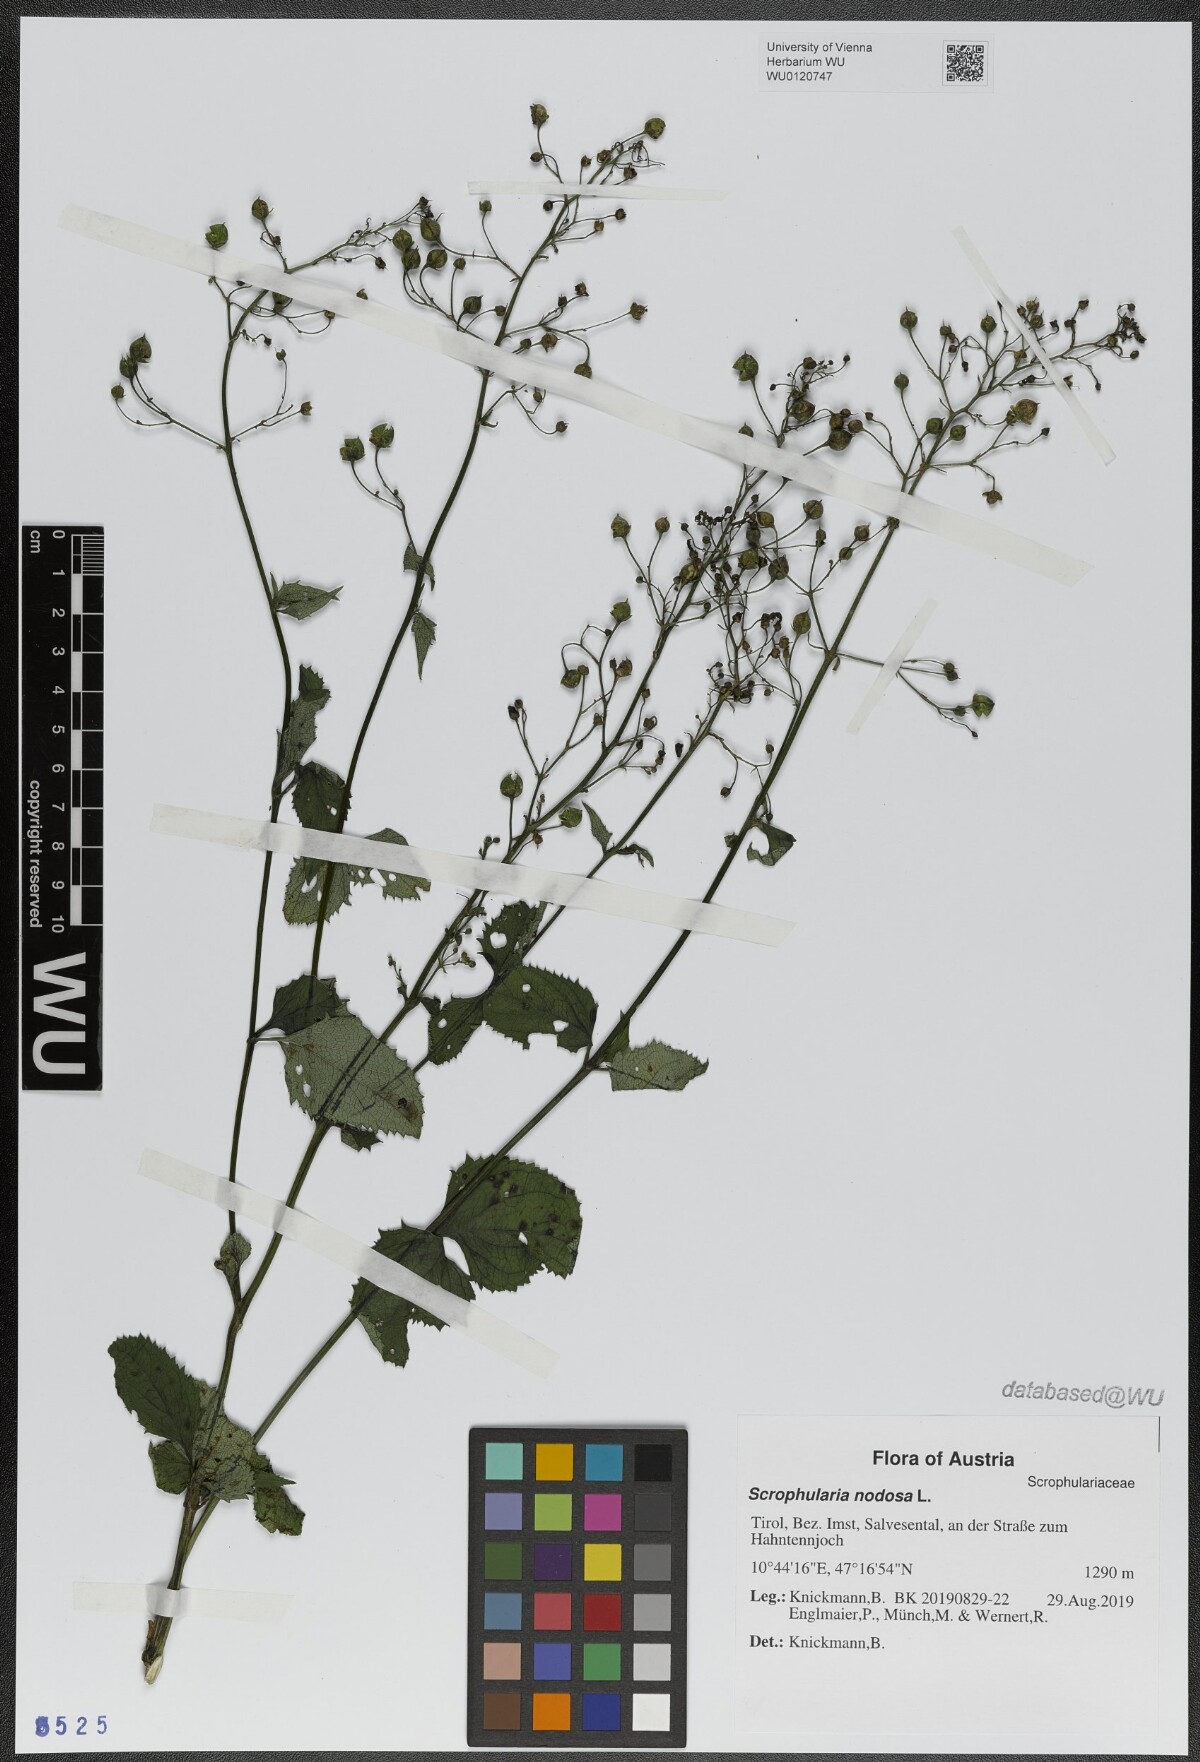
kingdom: Plantae
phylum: Tracheophyta
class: Magnoliopsida
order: Lamiales
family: Scrophulariaceae
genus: Scrophularia
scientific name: Scrophularia nodosa
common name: Common figwort
